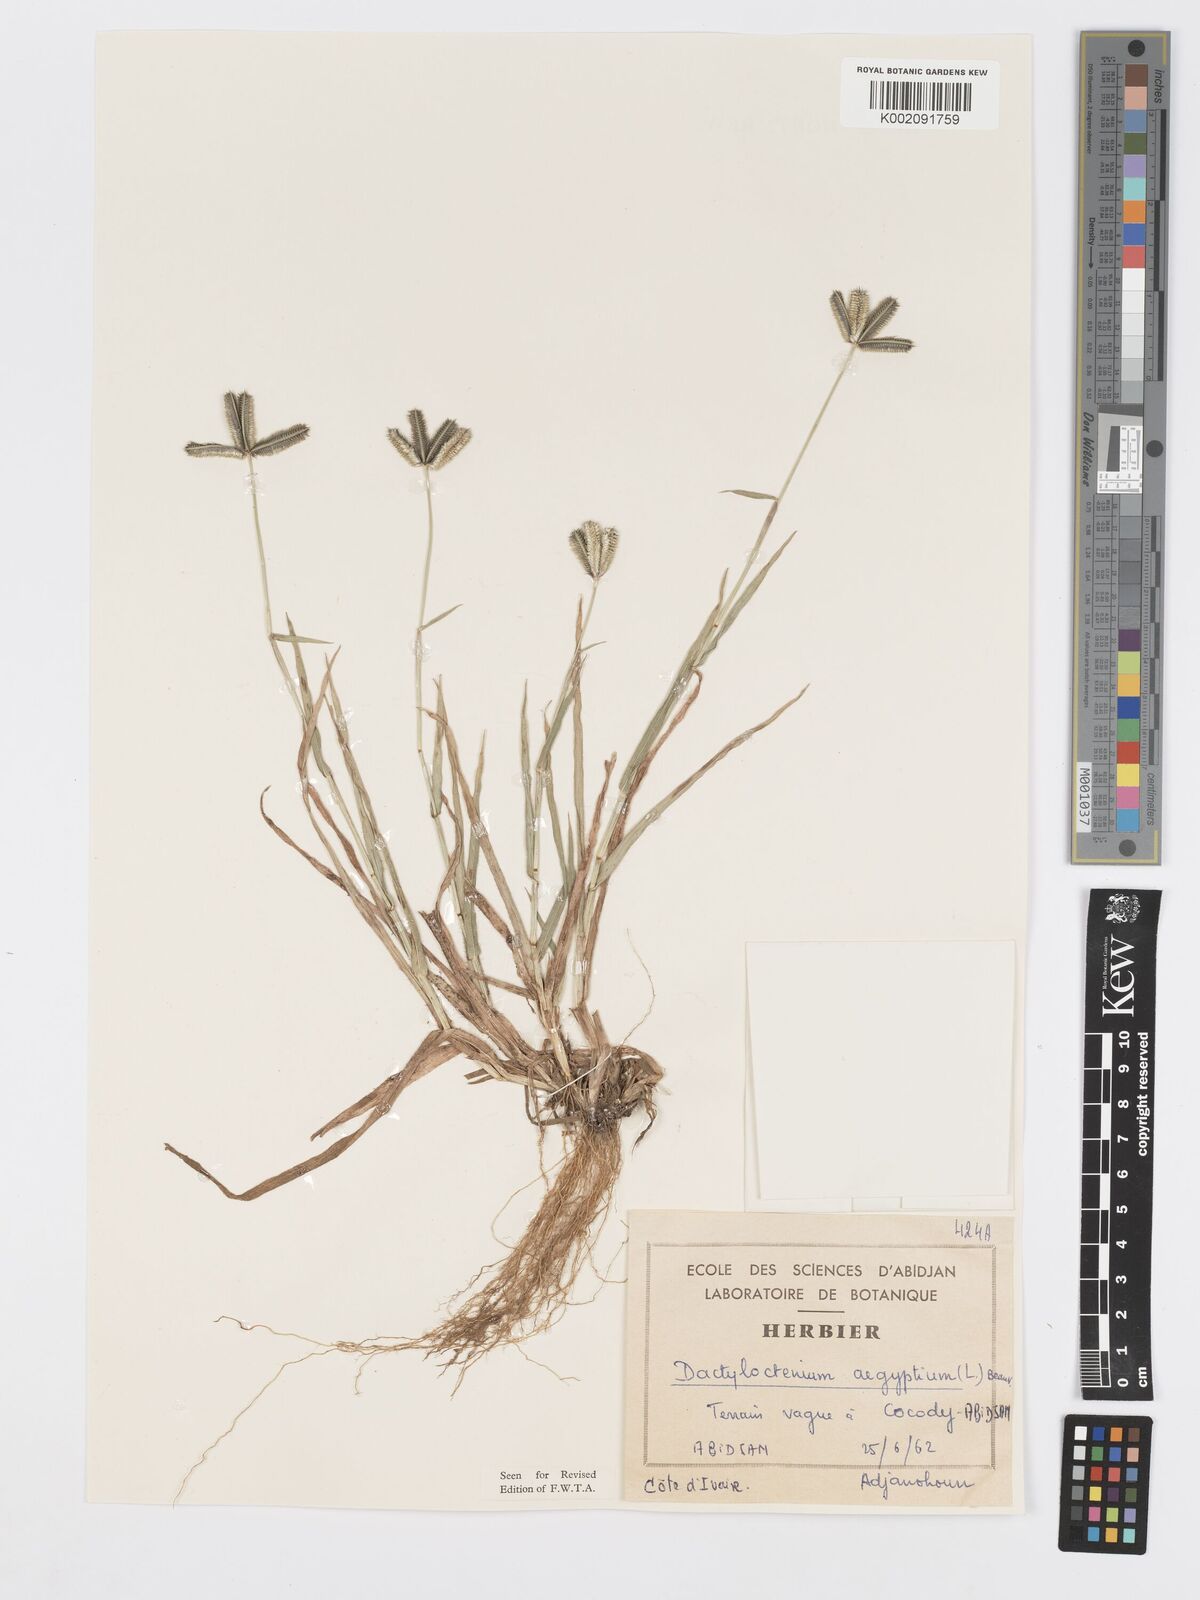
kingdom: Plantae
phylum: Tracheophyta
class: Liliopsida
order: Poales
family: Poaceae
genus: Dactyloctenium
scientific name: Dactyloctenium aegyptium
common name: Egyptian grass
